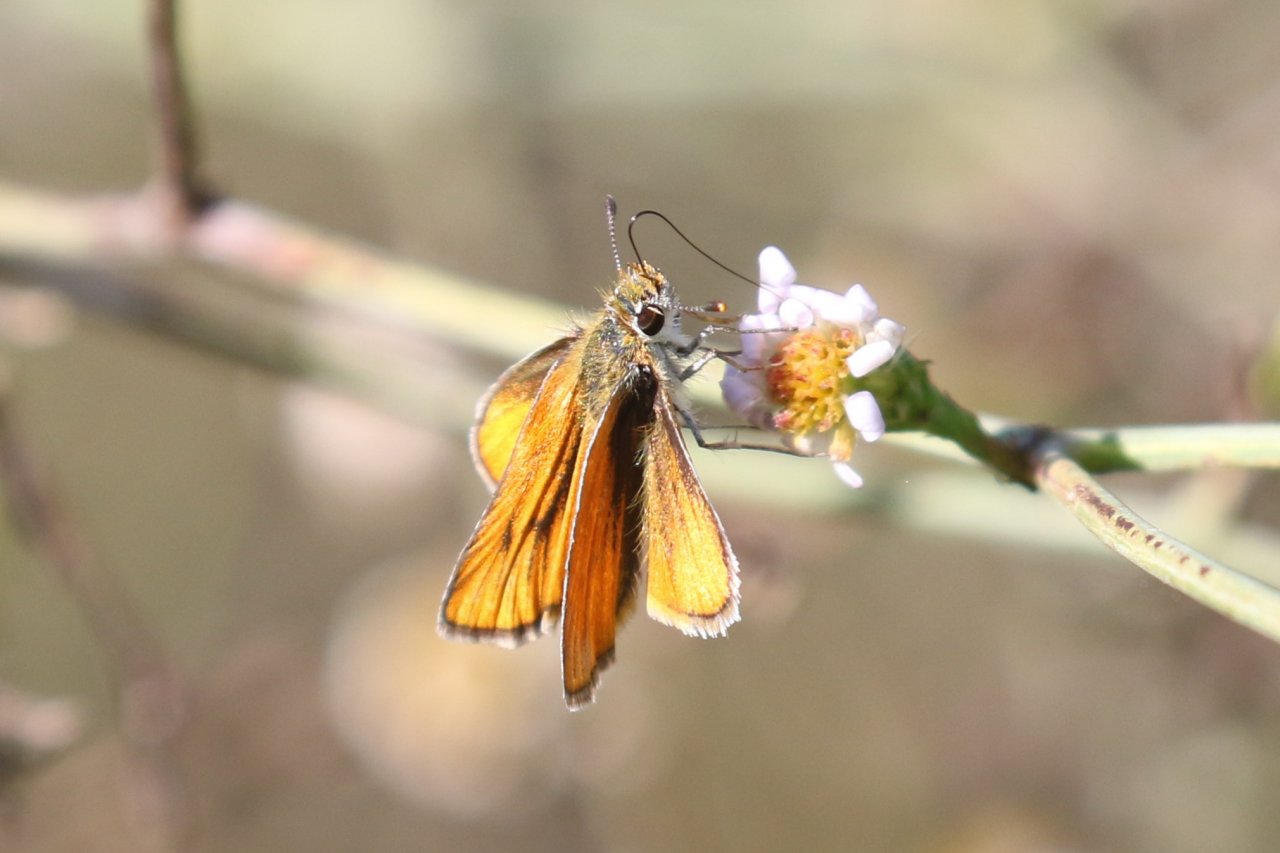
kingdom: Animalia
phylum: Arthropoda
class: Insecta
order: Lepidoptera
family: Hesperiidae
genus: Copaeodes
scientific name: Copaeodes minima
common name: Southern Skipperling
